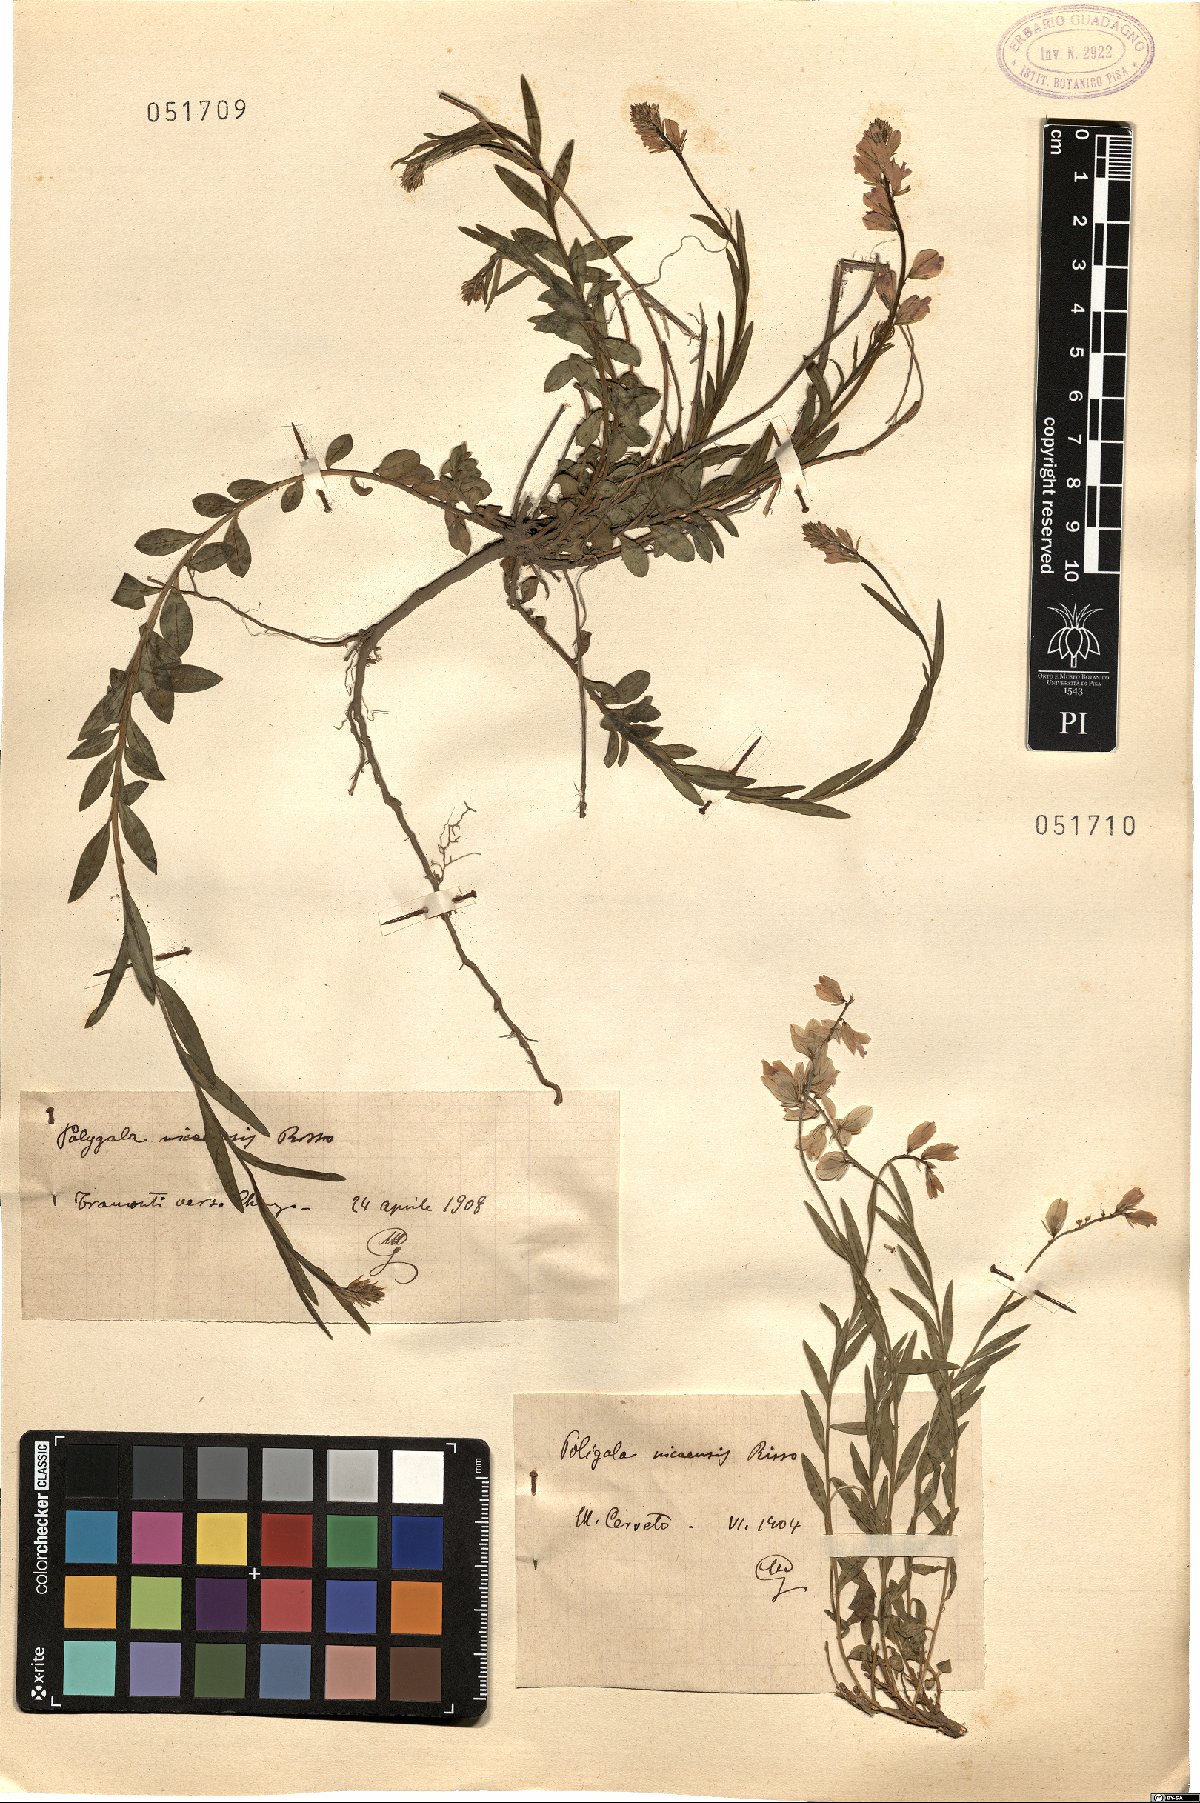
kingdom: Plantae
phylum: Tracheophyta
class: Magnoliopsida
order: Fabales
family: Polygalaceae
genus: Polygala
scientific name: Polygala nicaeensis
